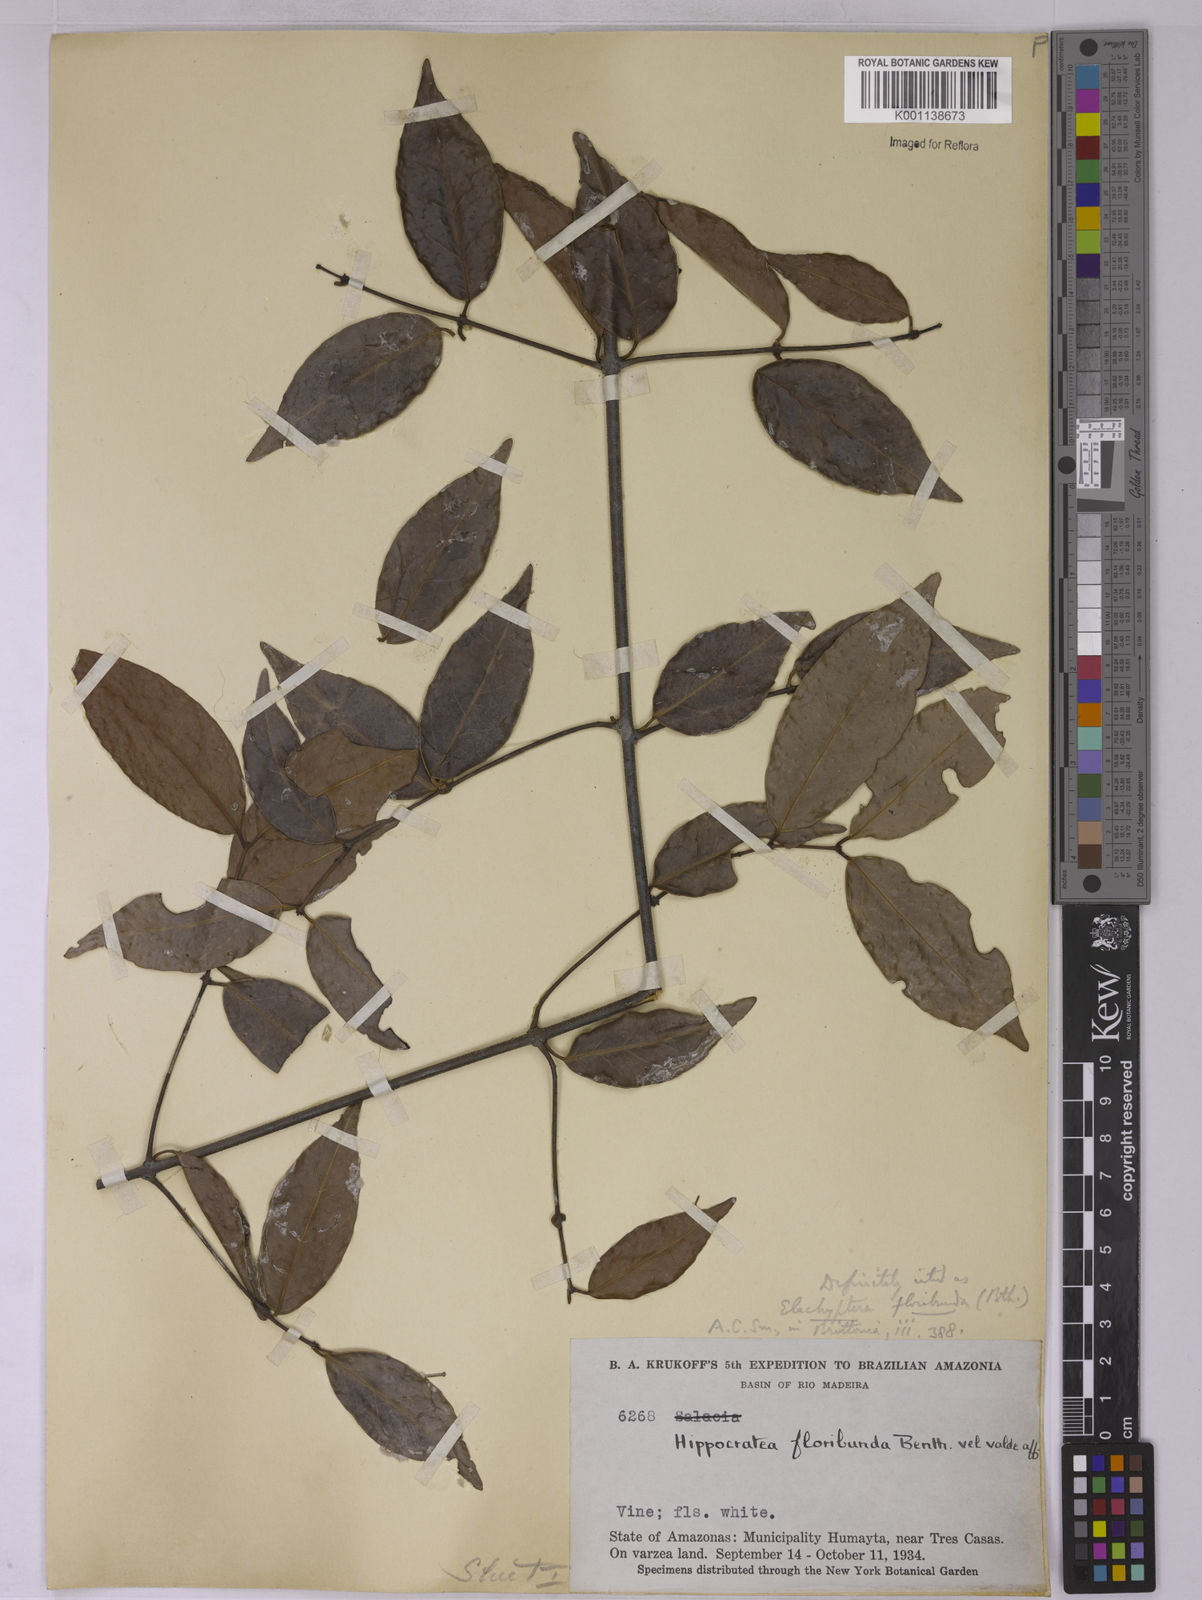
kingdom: Plantae
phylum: Tracheophyta
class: Magnoliopsida
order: Celastrales
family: Celastraceae
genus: Elachyptera
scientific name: Elachyptera floribunda
